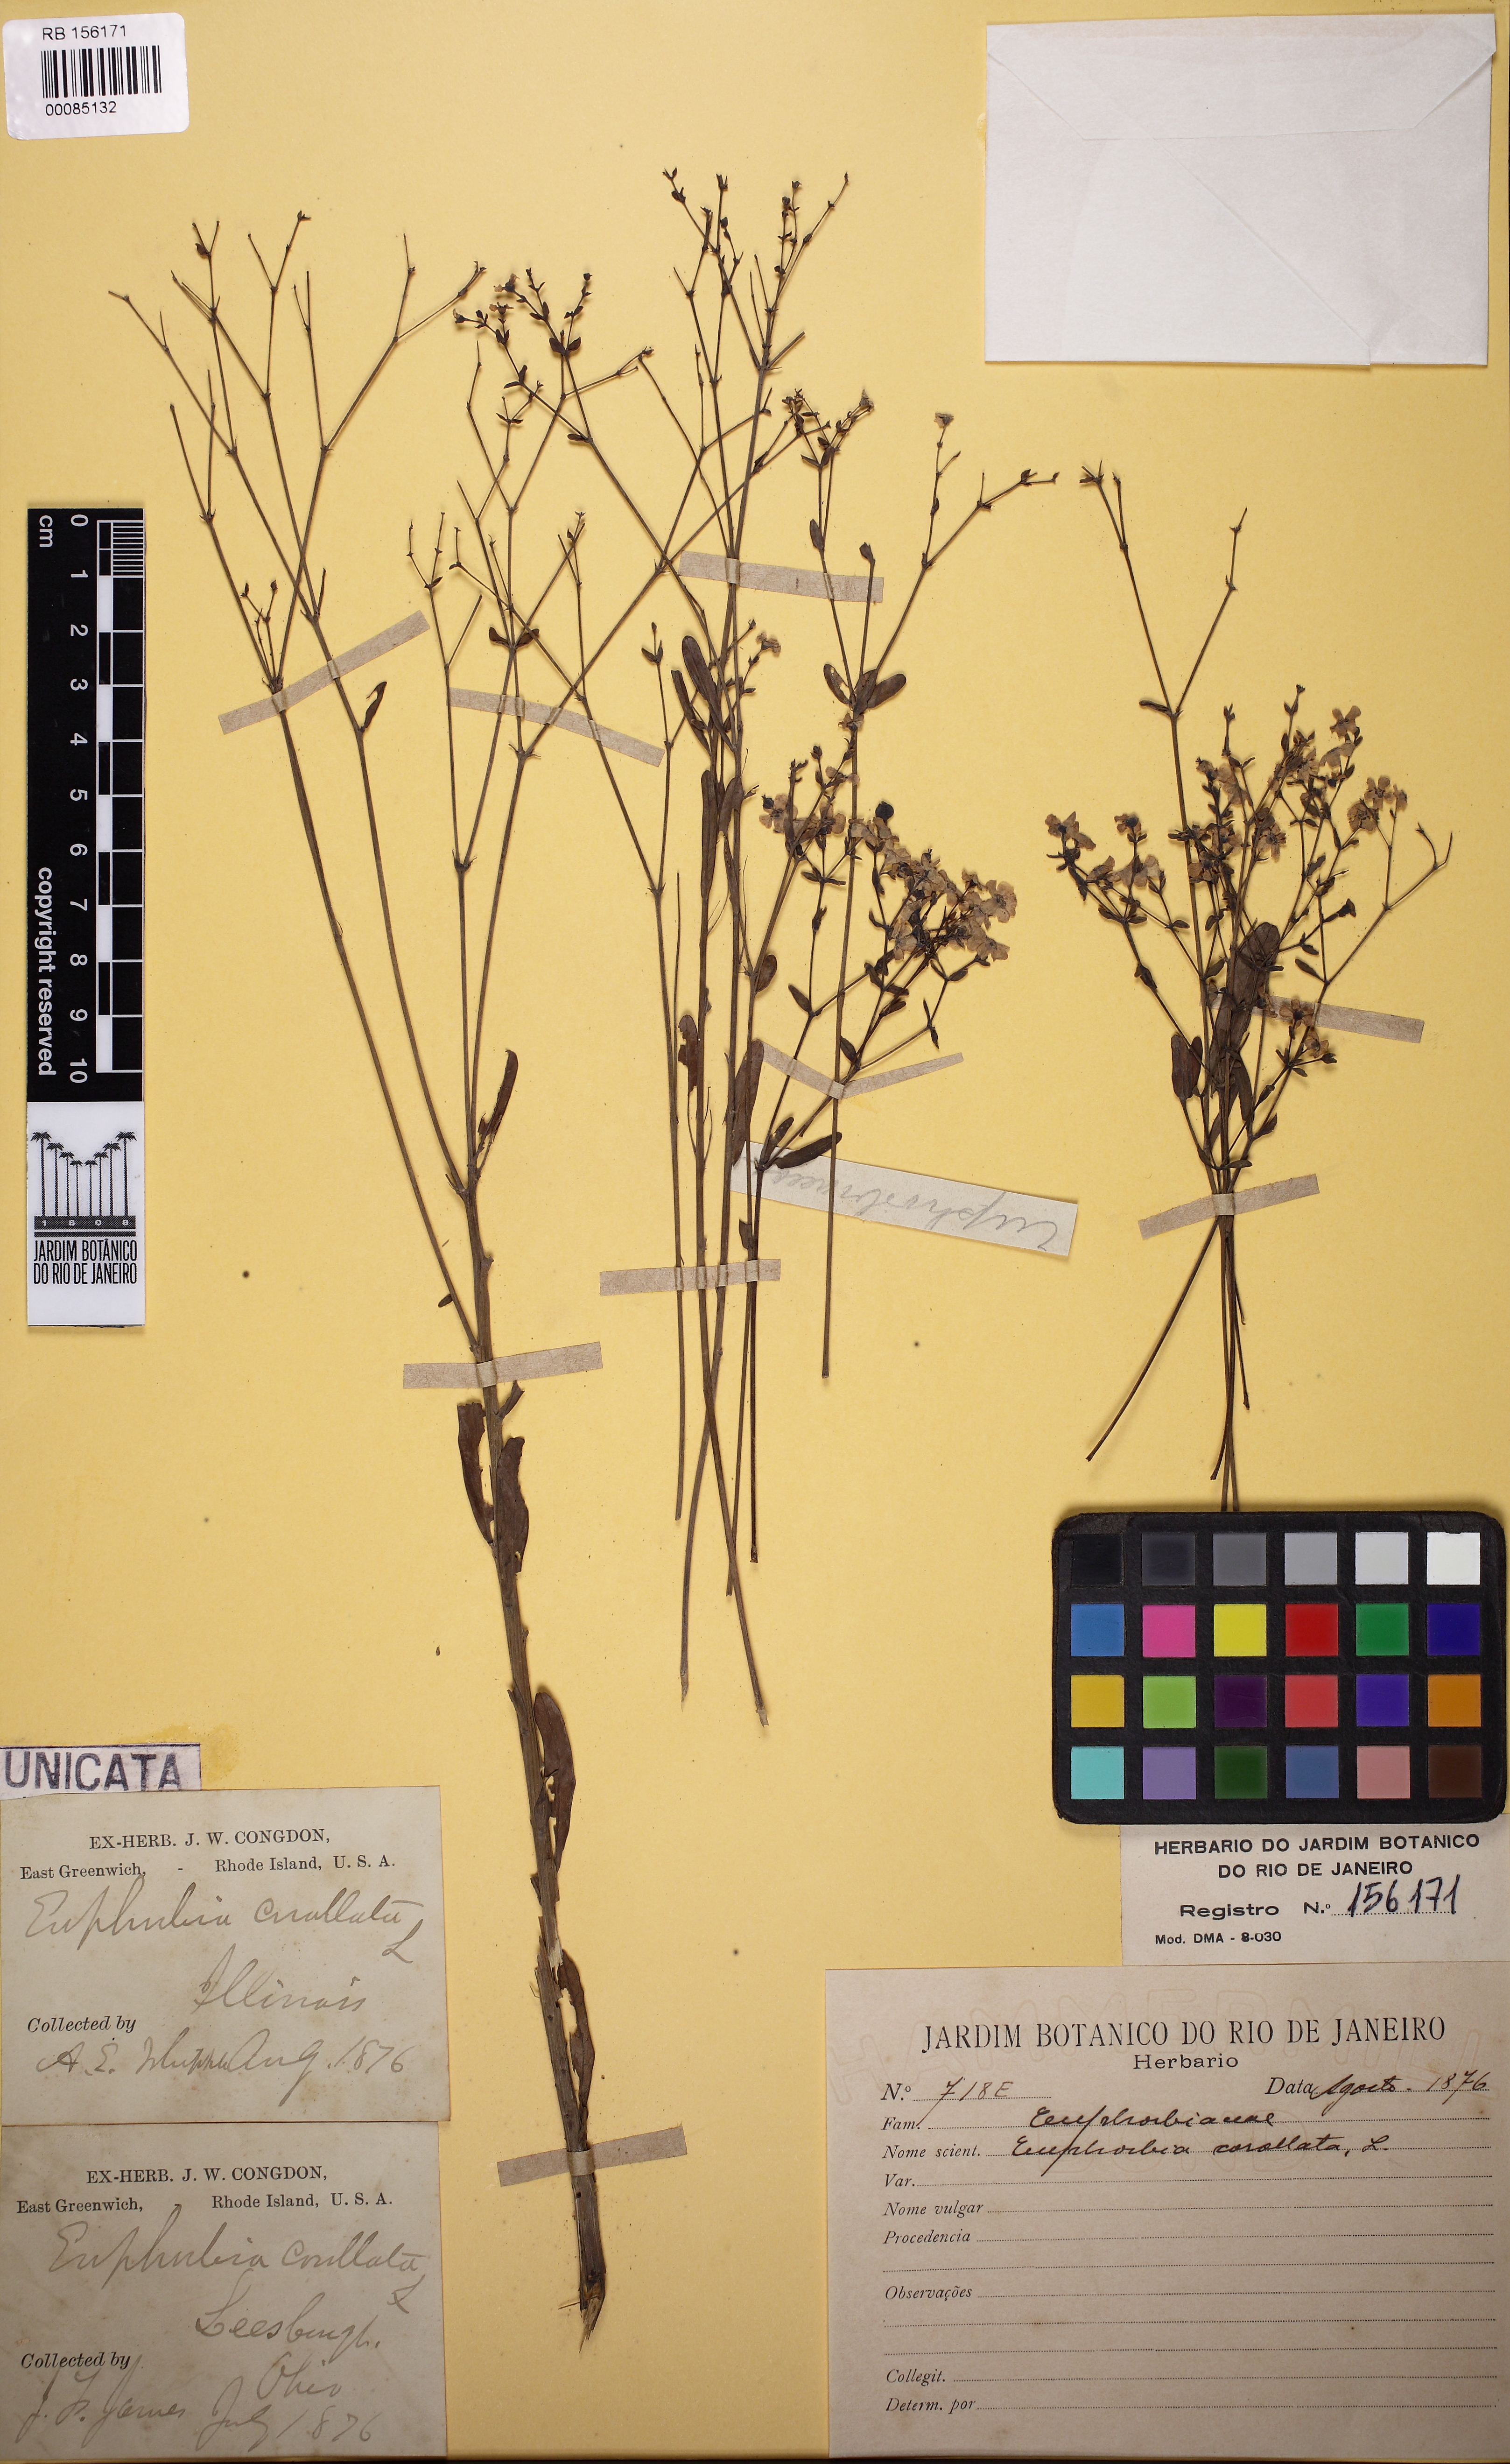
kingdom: Plantae
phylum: Tracheophyta
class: Magnoliopsida
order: Malpighiales
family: Euphorbiaceae
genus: Euphorbia
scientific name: Euphorbia corollata
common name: Flowering spurge
